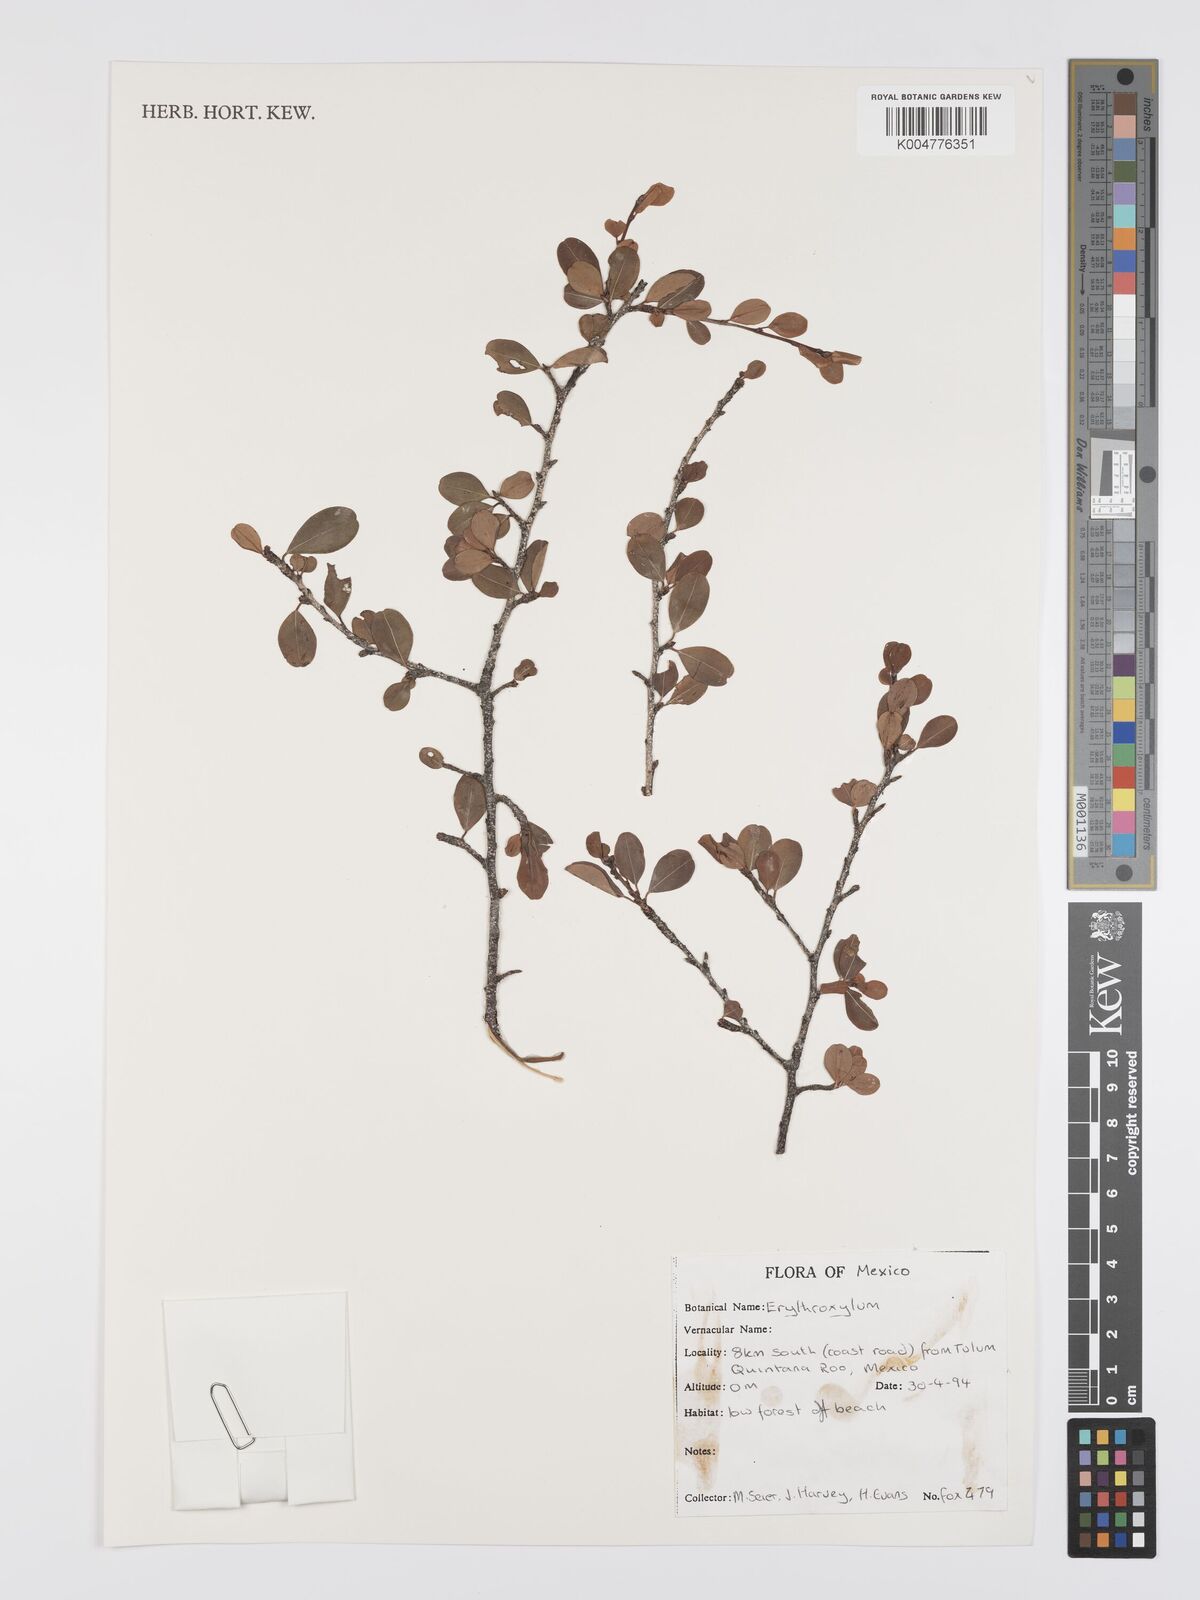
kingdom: Plantae
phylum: Tracheophyta
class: Magnoliopsida
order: Malpighiales
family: Erythroxylaceae
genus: Erythroxylum
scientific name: Erythroxylum
